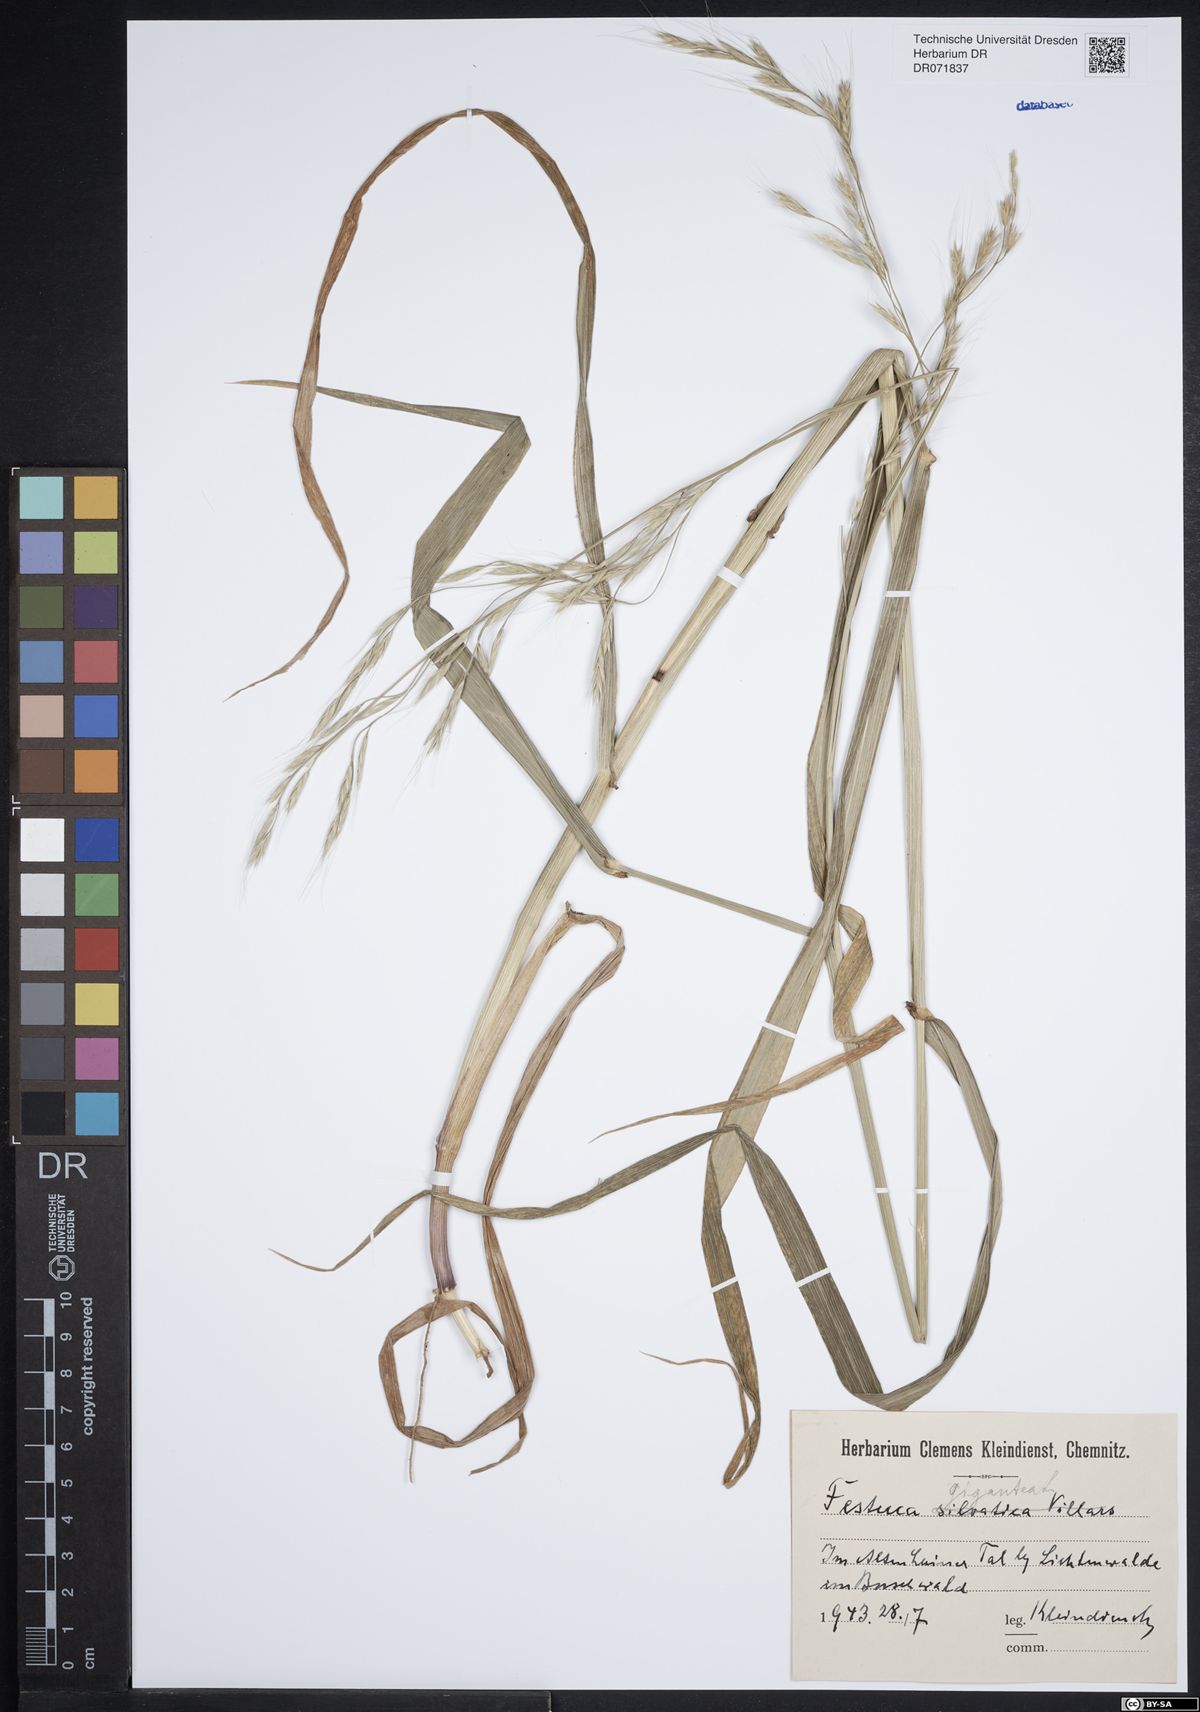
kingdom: Plantae
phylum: Tracheophyta
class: Liliopsida
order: Poales
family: Poaceae
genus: Lolium
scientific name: Lolium giganteum
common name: Giant fescue
